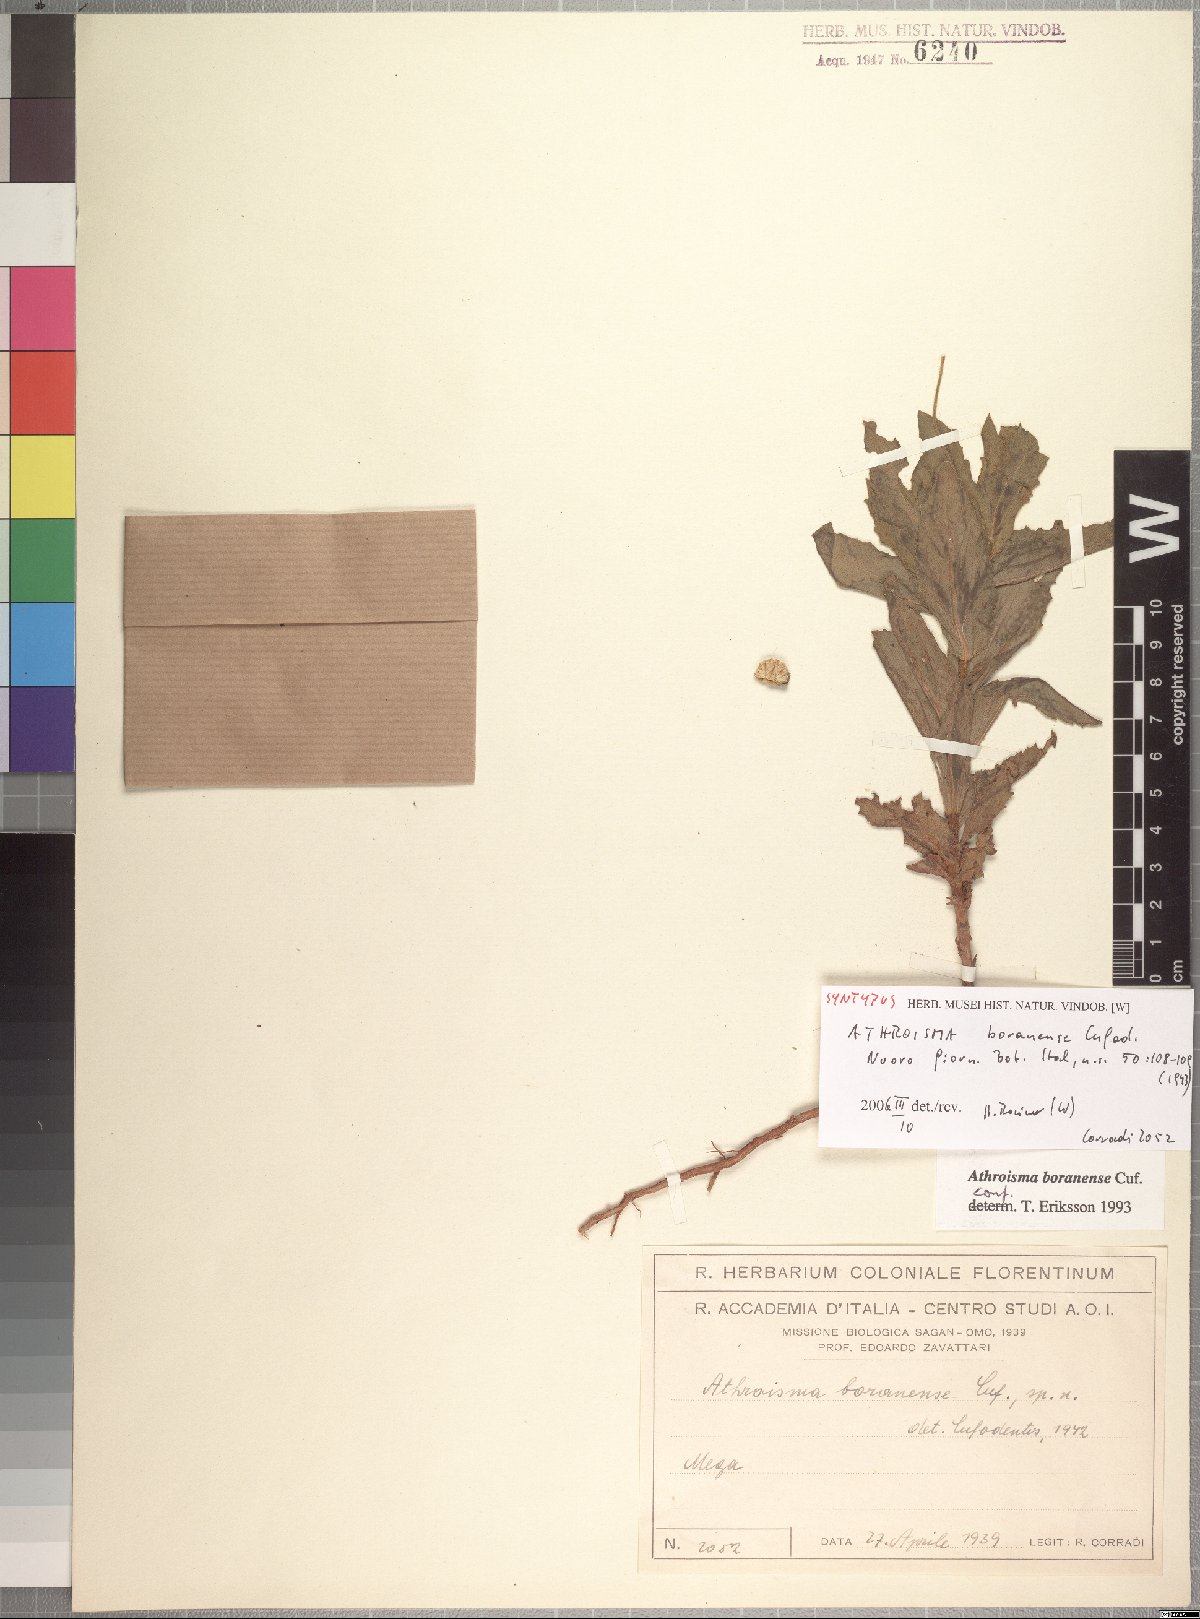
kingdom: Plantae
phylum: Tracheophyta
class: Magnoliopsida
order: Asterales
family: Asteraceae
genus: Athroisma
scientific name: Athroisma boranense
